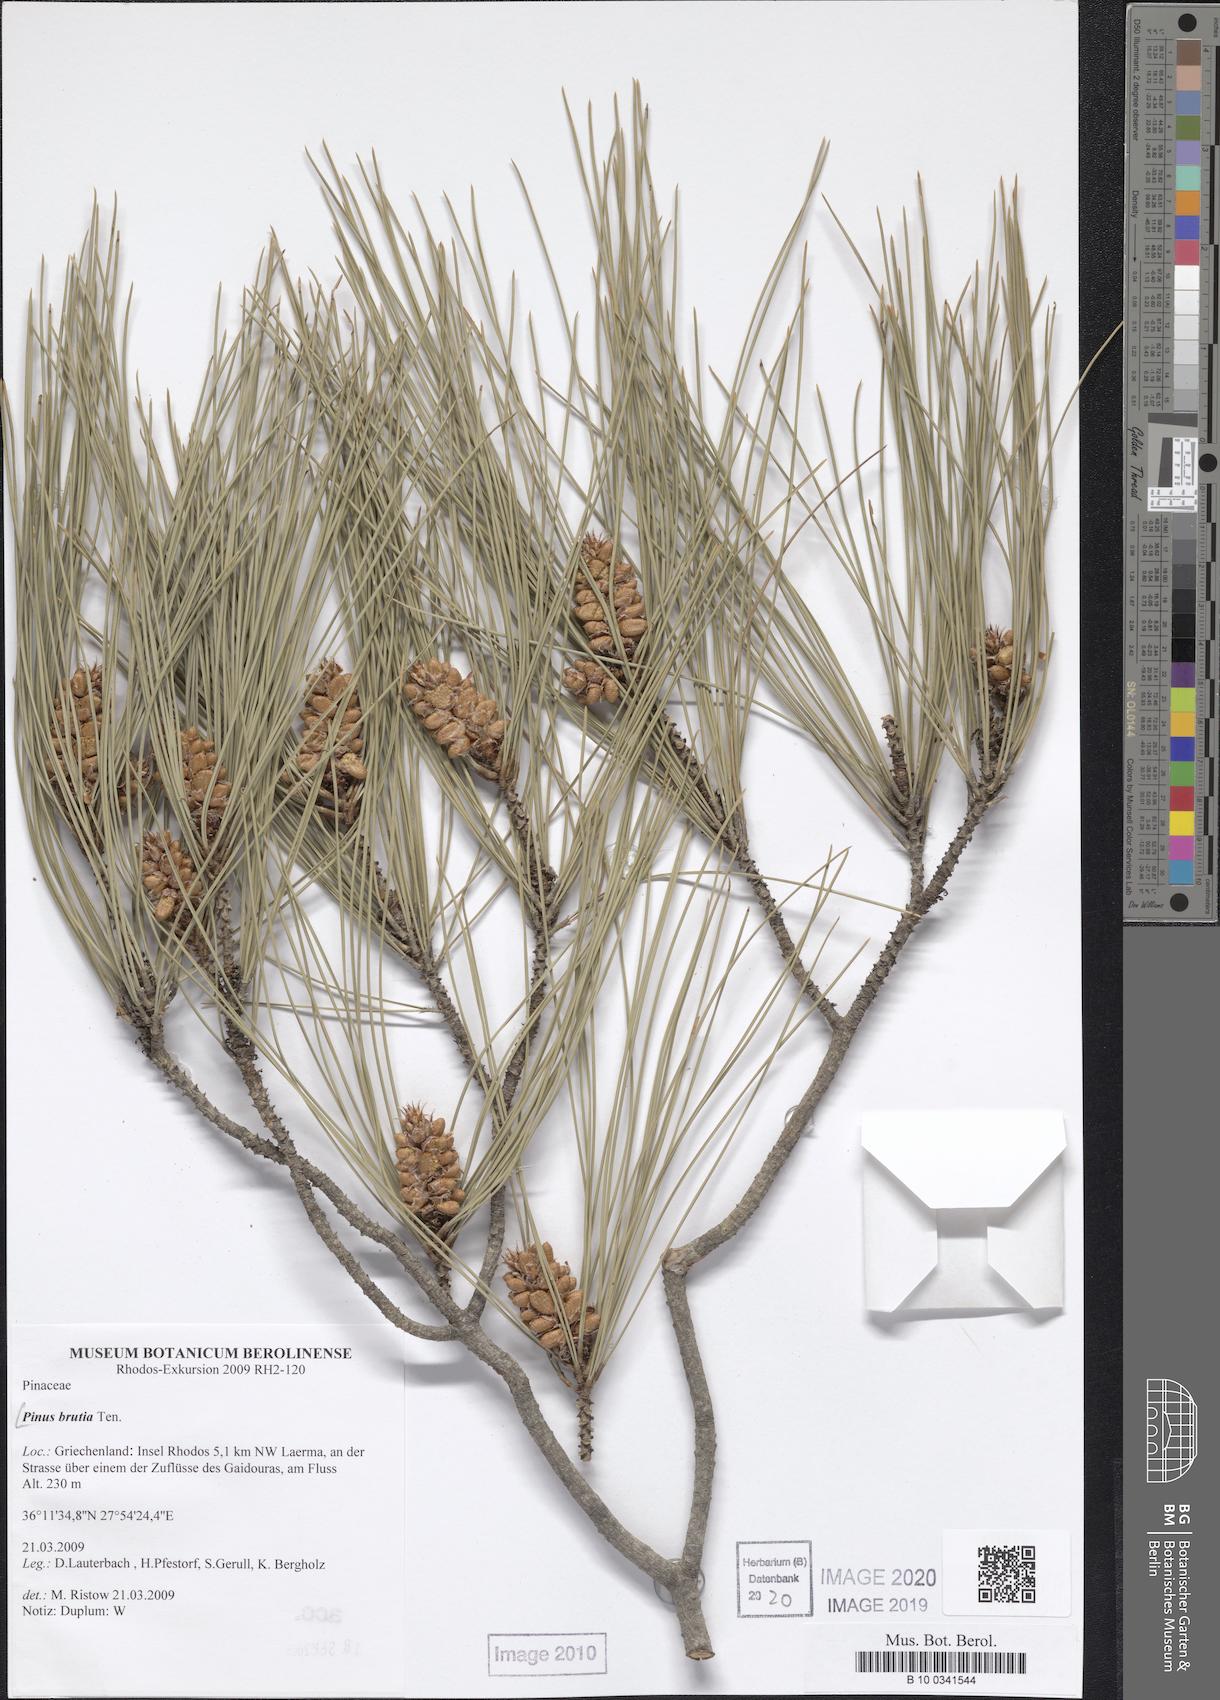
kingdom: Plantae
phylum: Tracheophyta
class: Pinopsida
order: Pinales
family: Pinaceae
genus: Pinus
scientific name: Pinus brutia
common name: Turkish pine
